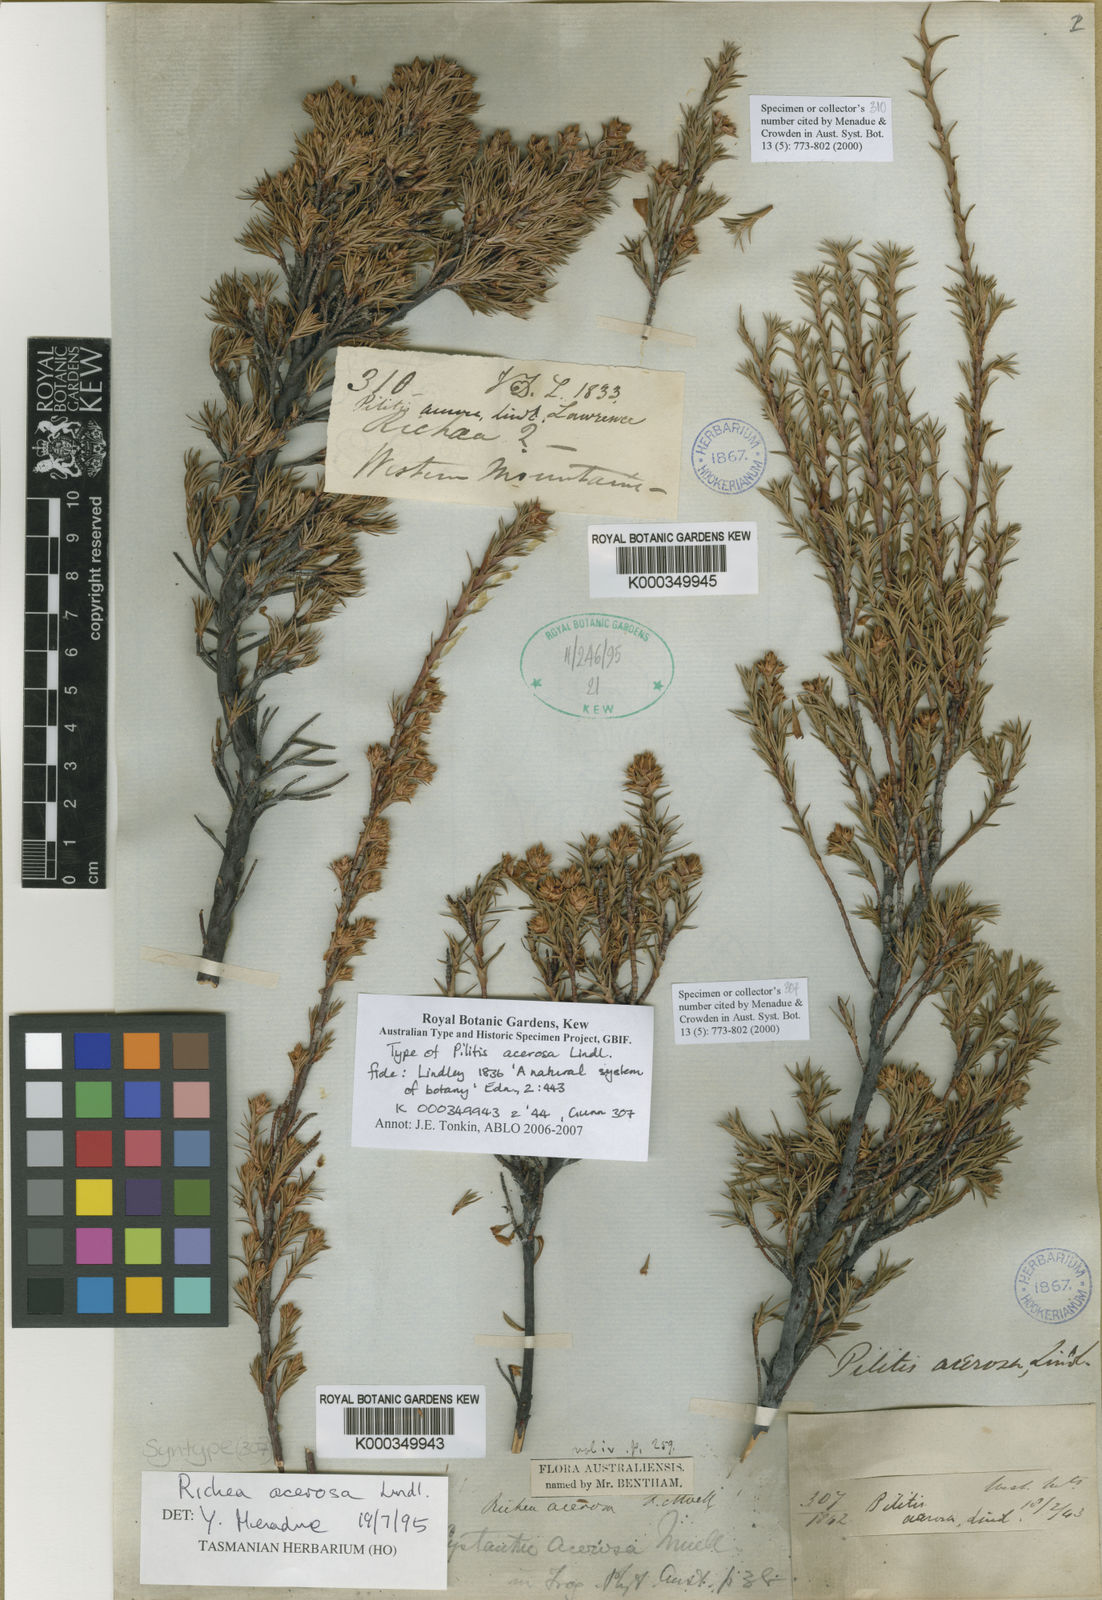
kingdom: Plantae
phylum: Tracheophyta
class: Magnoliopsida
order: Ericales
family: Ericaceae
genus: Dracophyllum
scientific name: Dracophyllum laciniatum
